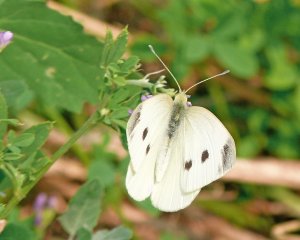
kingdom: Animalia
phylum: Arthropoda
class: Insecta
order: Lepidoptera
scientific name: Lepidoptera
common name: Butterflies
